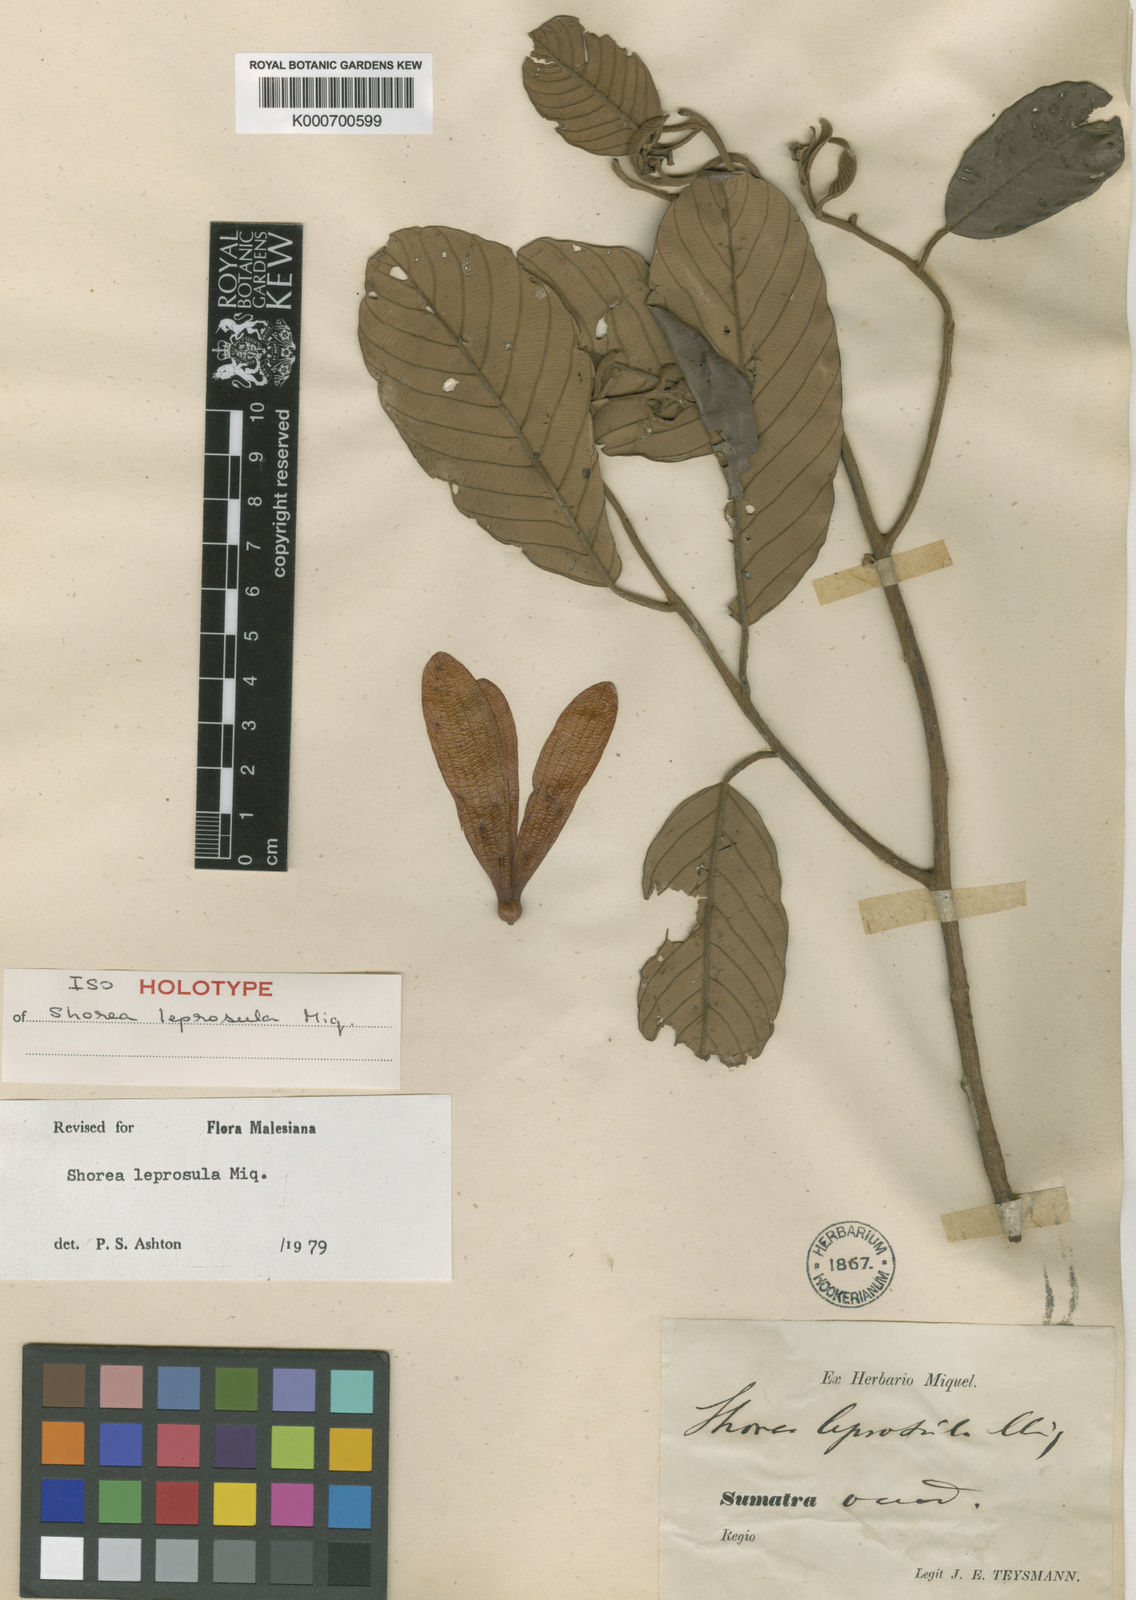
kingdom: Plantae
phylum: Tracheophyta
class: Magnoliopsida
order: Malvales
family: Dipterocarpaceae
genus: Shorea
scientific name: Shorea leprosula
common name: Light red meranti
